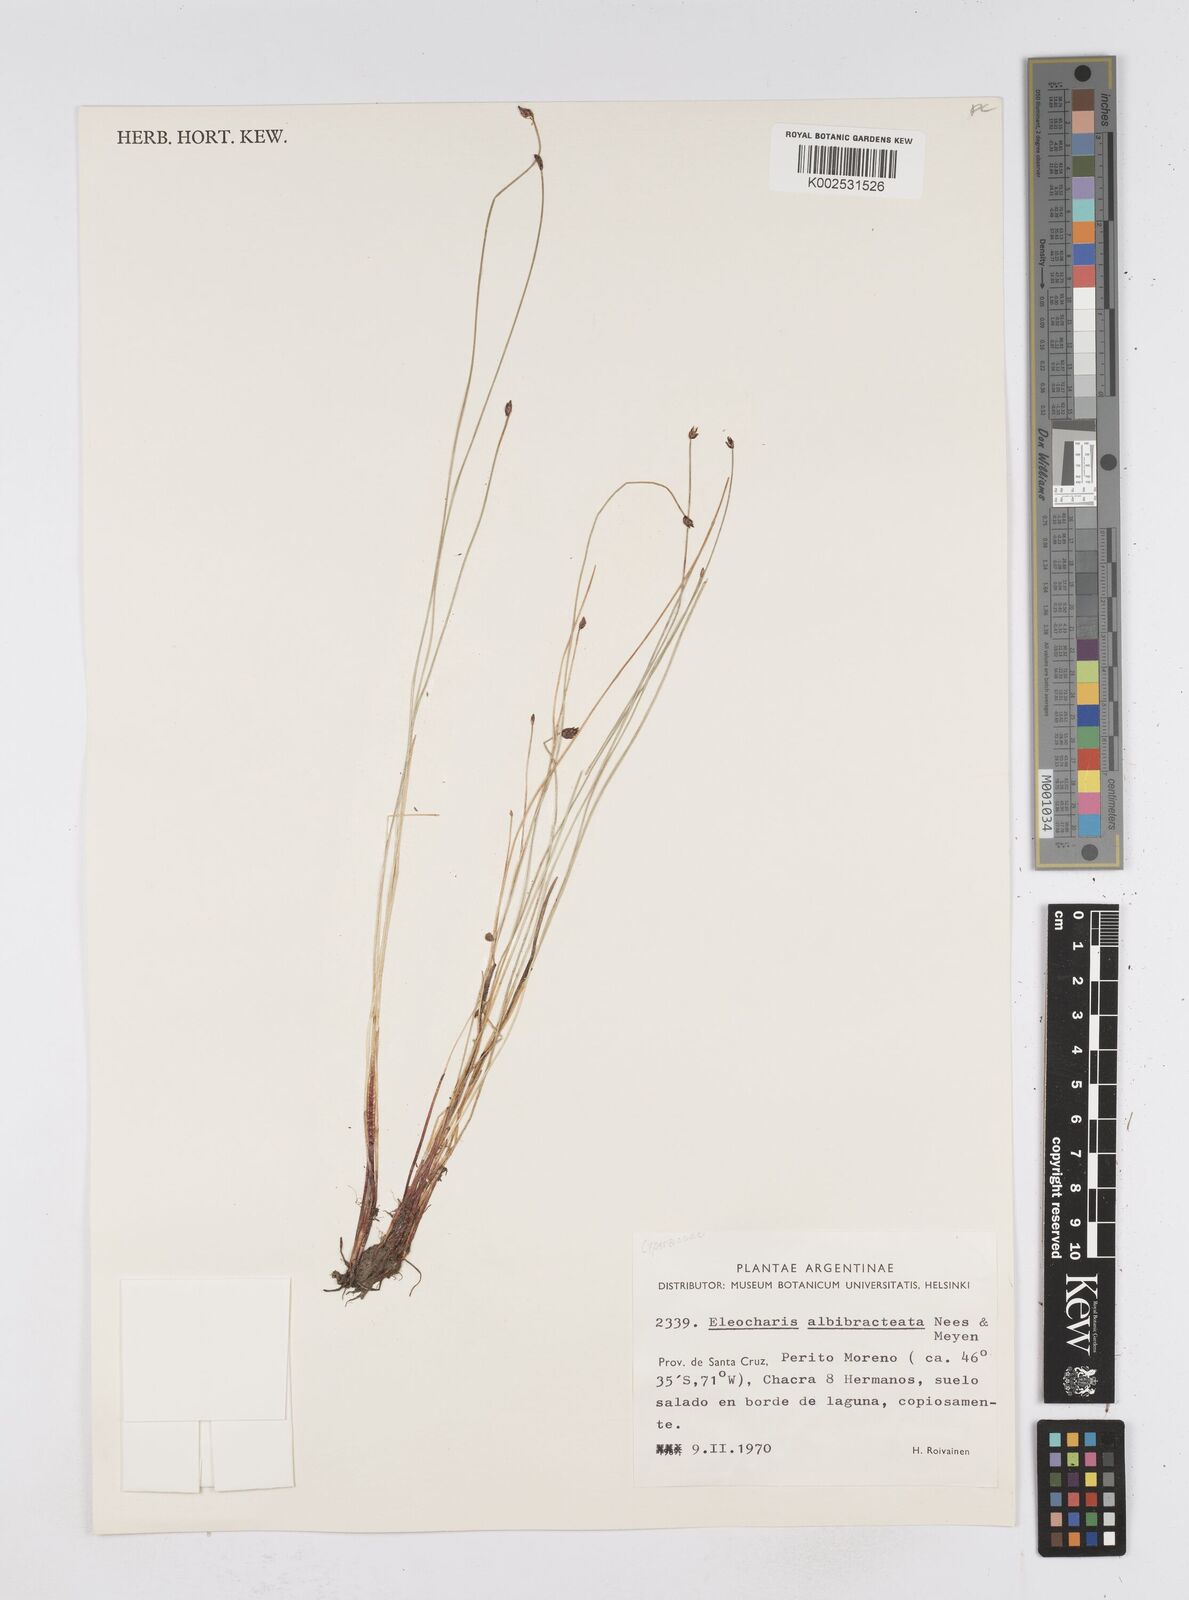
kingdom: Plantae
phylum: Tracheophyta
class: Liliopsida
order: Poales
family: Cyperaceae
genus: Eleocharis
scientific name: Eleocharis albibracteata
